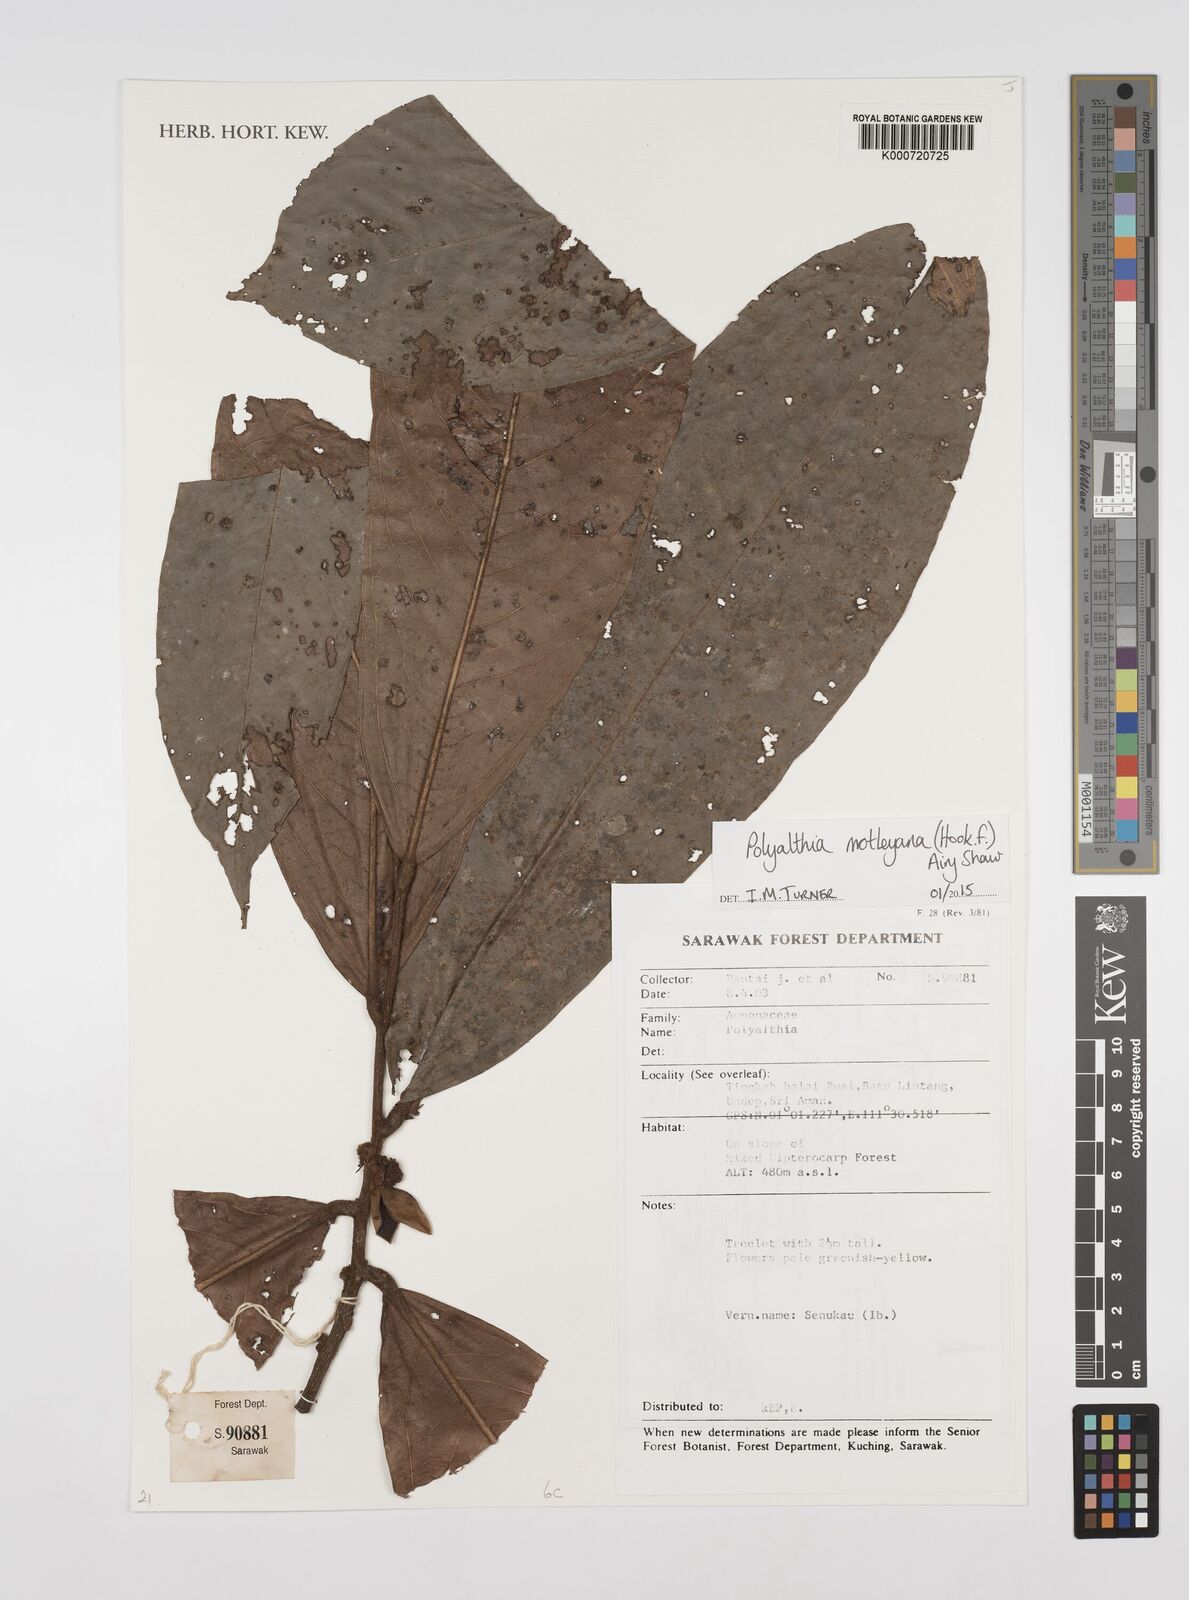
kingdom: Plantae
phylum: Tracheophyta
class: Magnoliopsida
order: Magnoliales
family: Annonaceae
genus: Polyalthia
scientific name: Polyalthia motleyana
